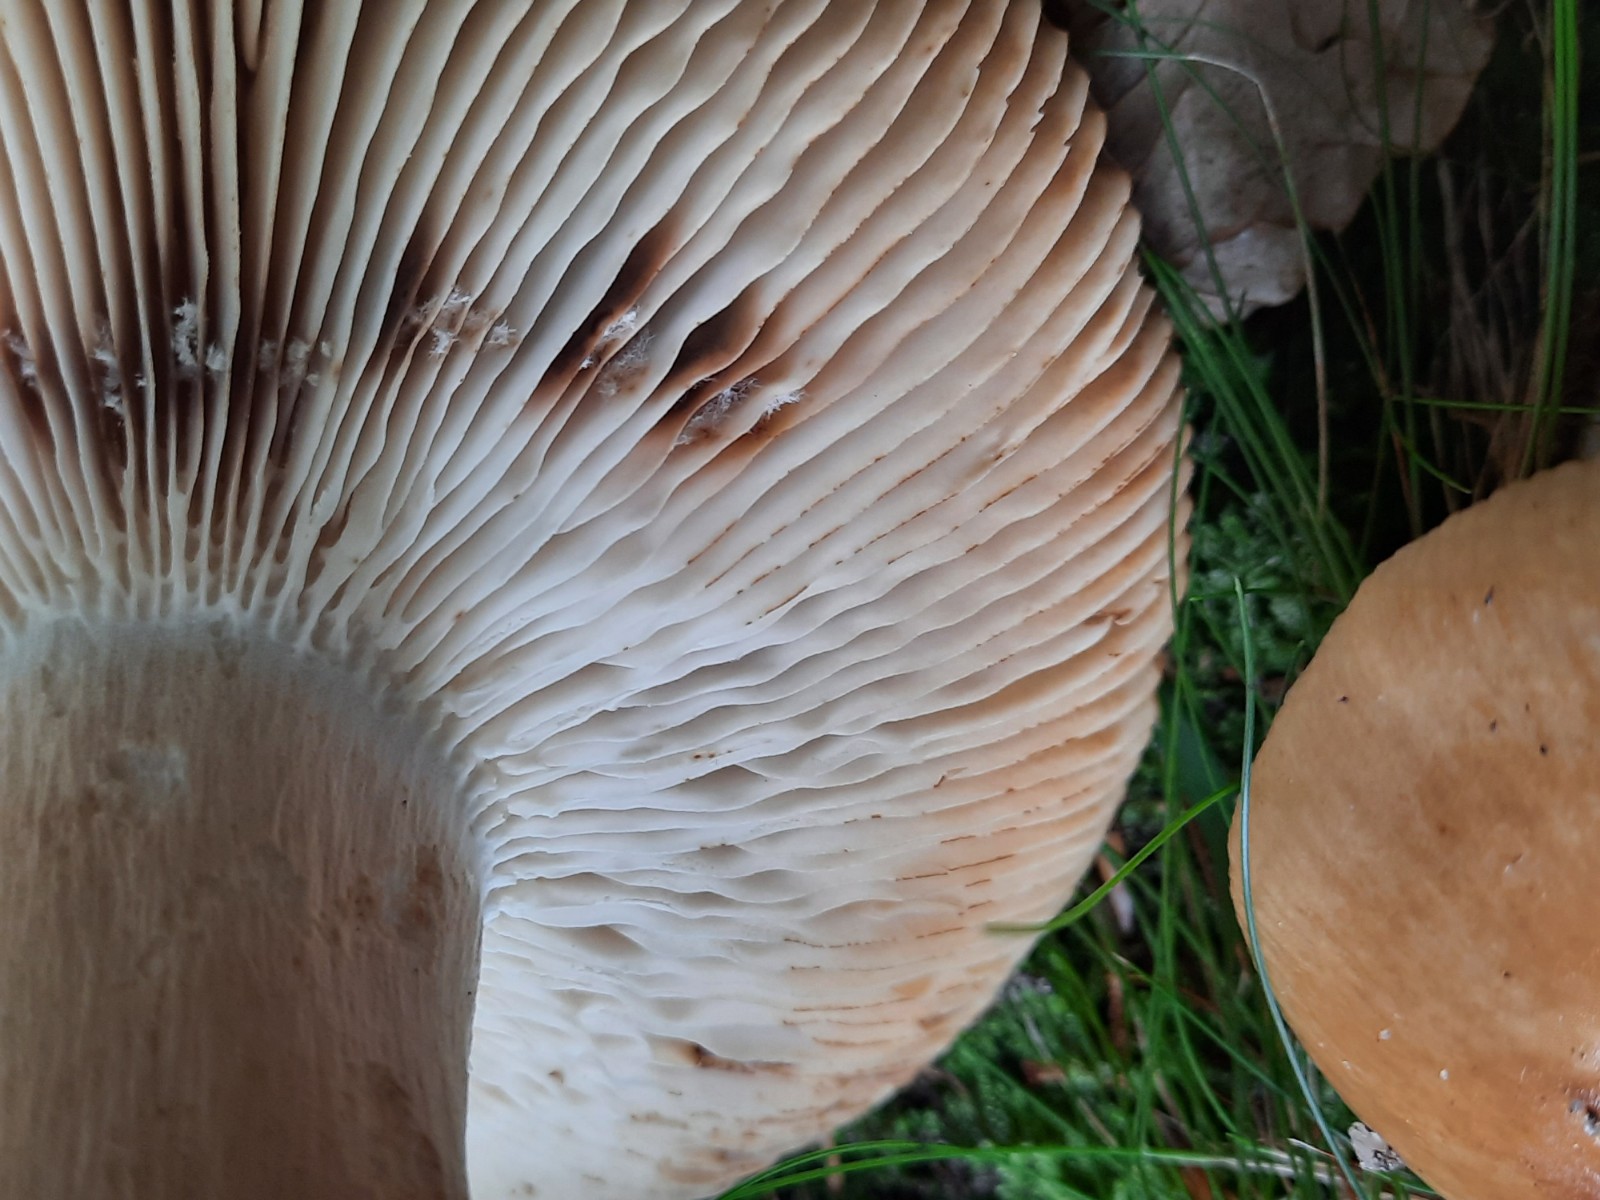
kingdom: Fungi
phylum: Basidiomycota
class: Agaricomycetes
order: Russulales
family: Russulaceae
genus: Russula
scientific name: Russula grata
